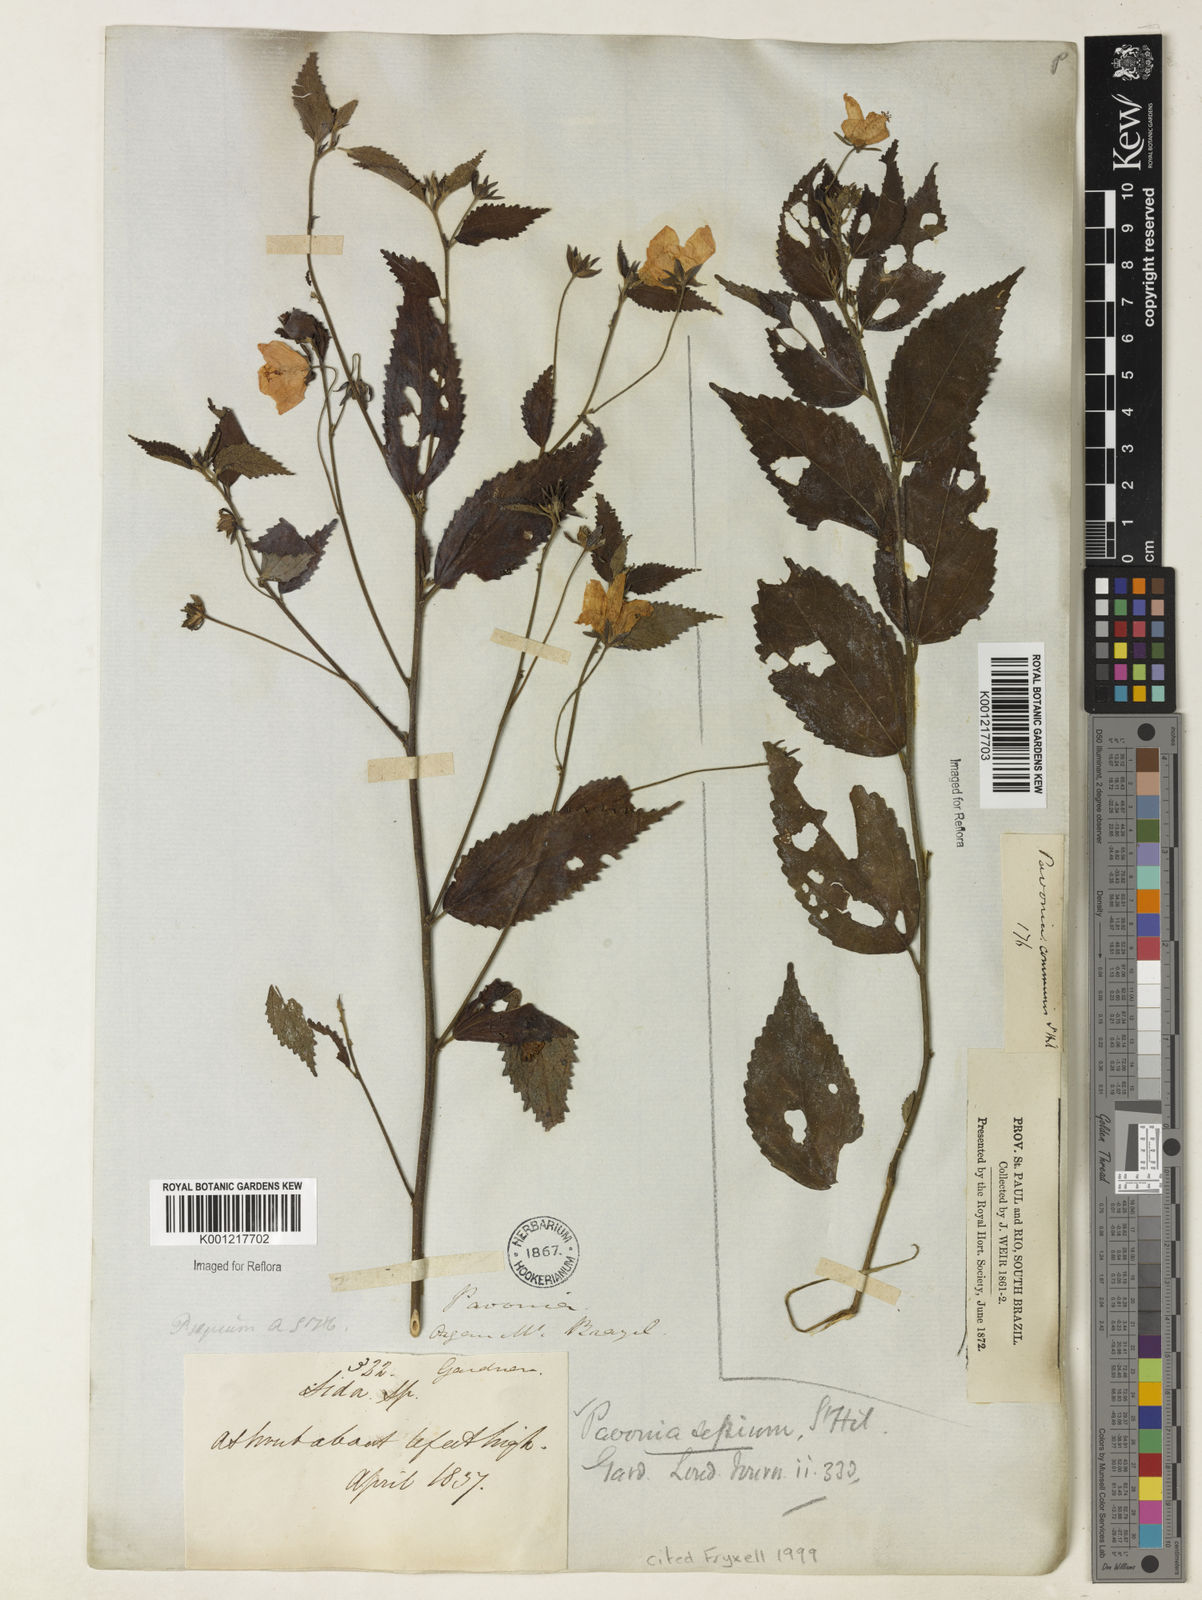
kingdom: Plantae
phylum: Tracheophyta
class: Magnoliopsida
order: Malvales
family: Malvaceae
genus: Pavonia
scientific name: Pavonia sepium
